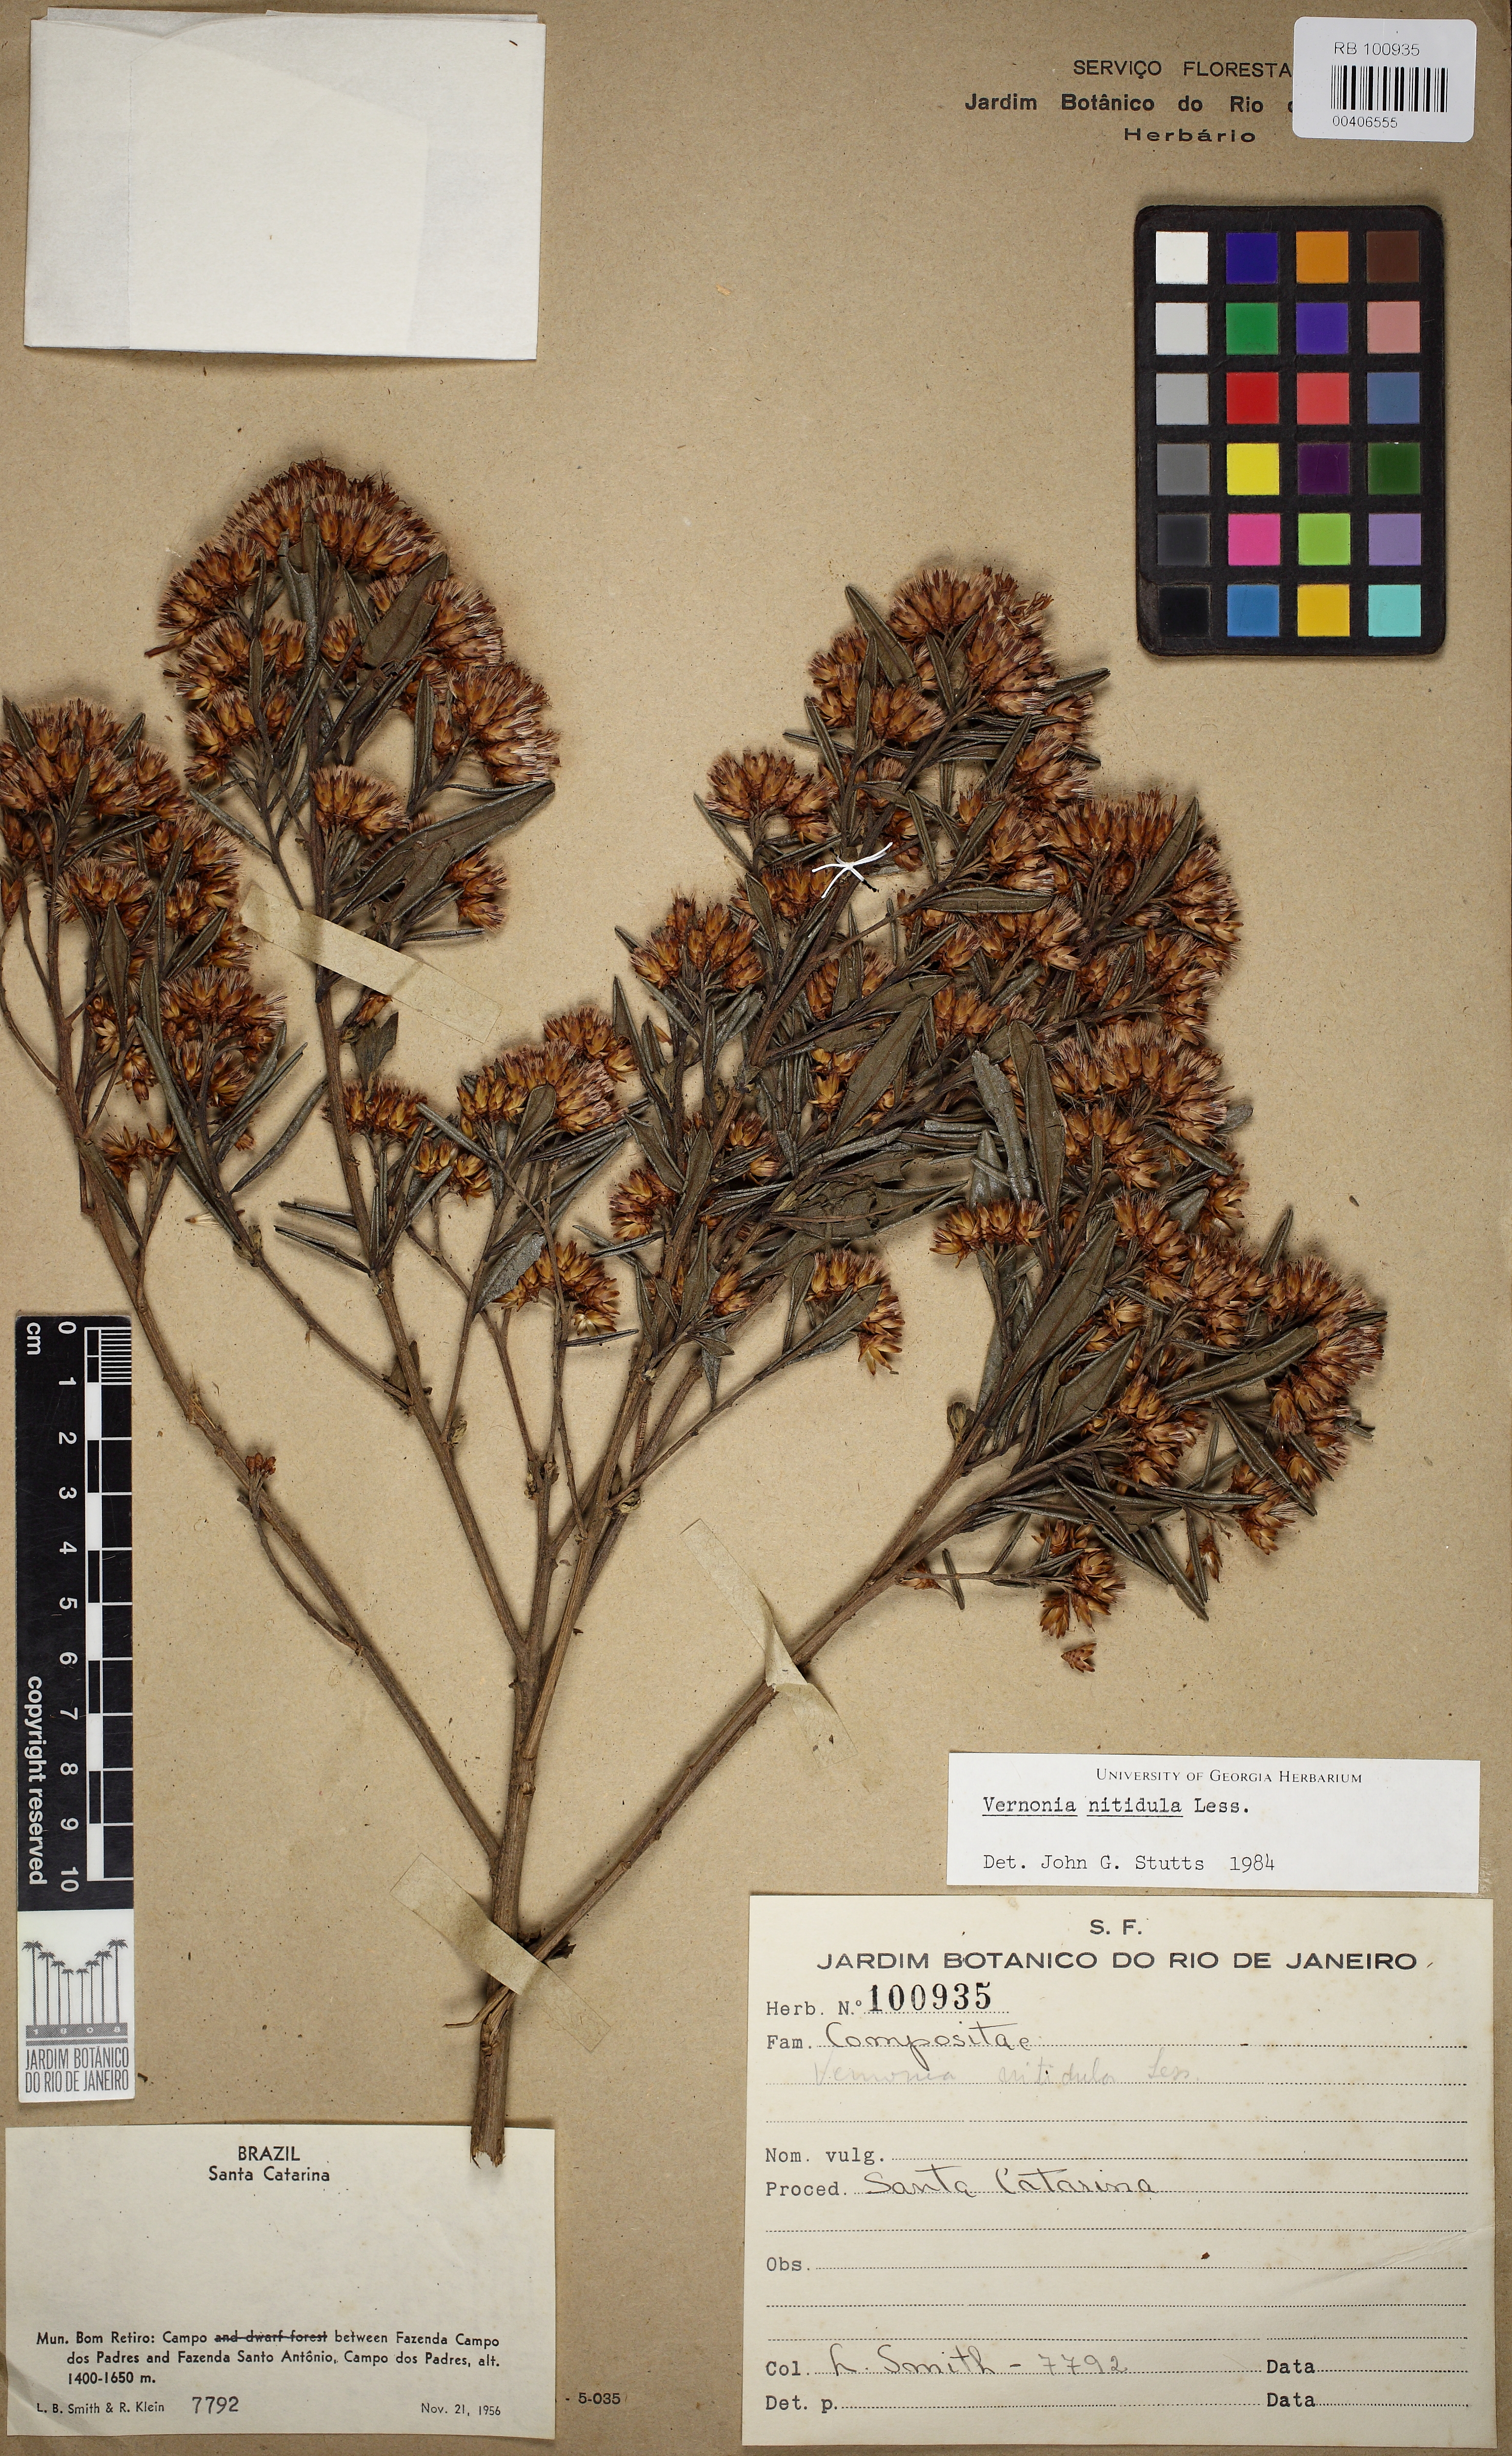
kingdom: Plantae
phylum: Tracheophyta
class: Magnoliopsida
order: Asterales
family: Asteraceae
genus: Vernonanthura
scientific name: Vernonanthura montevidensis
